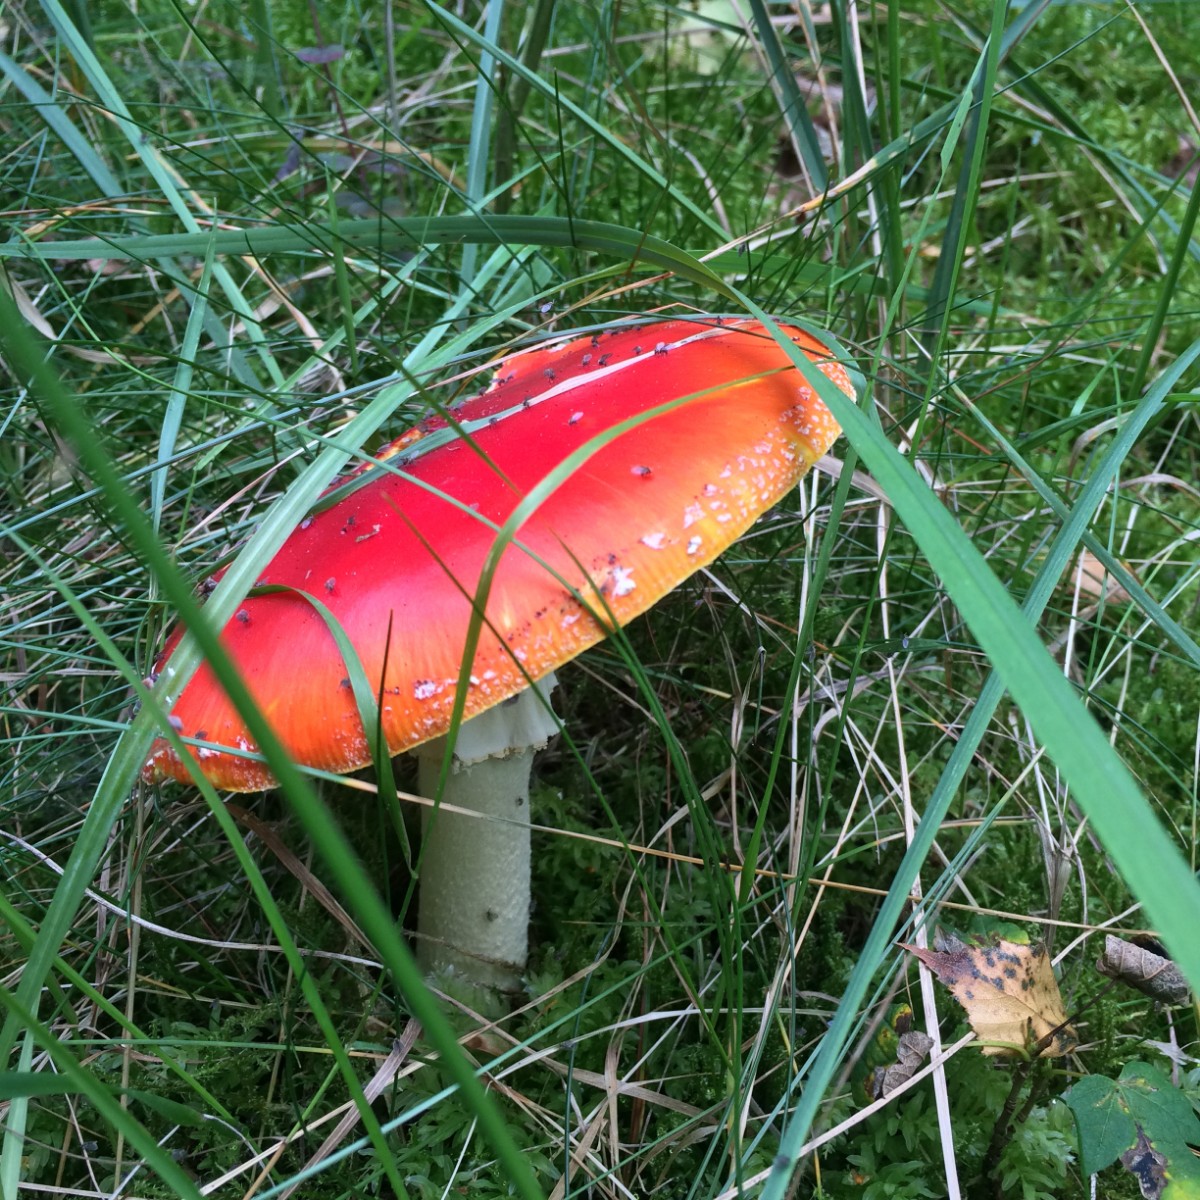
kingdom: Fungi
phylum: Basidiomycota
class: Agaricomycetes
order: Agaricales
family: Amanitaceae
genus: Amanita
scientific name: Amanita muscaria
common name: rød fluesvamp
